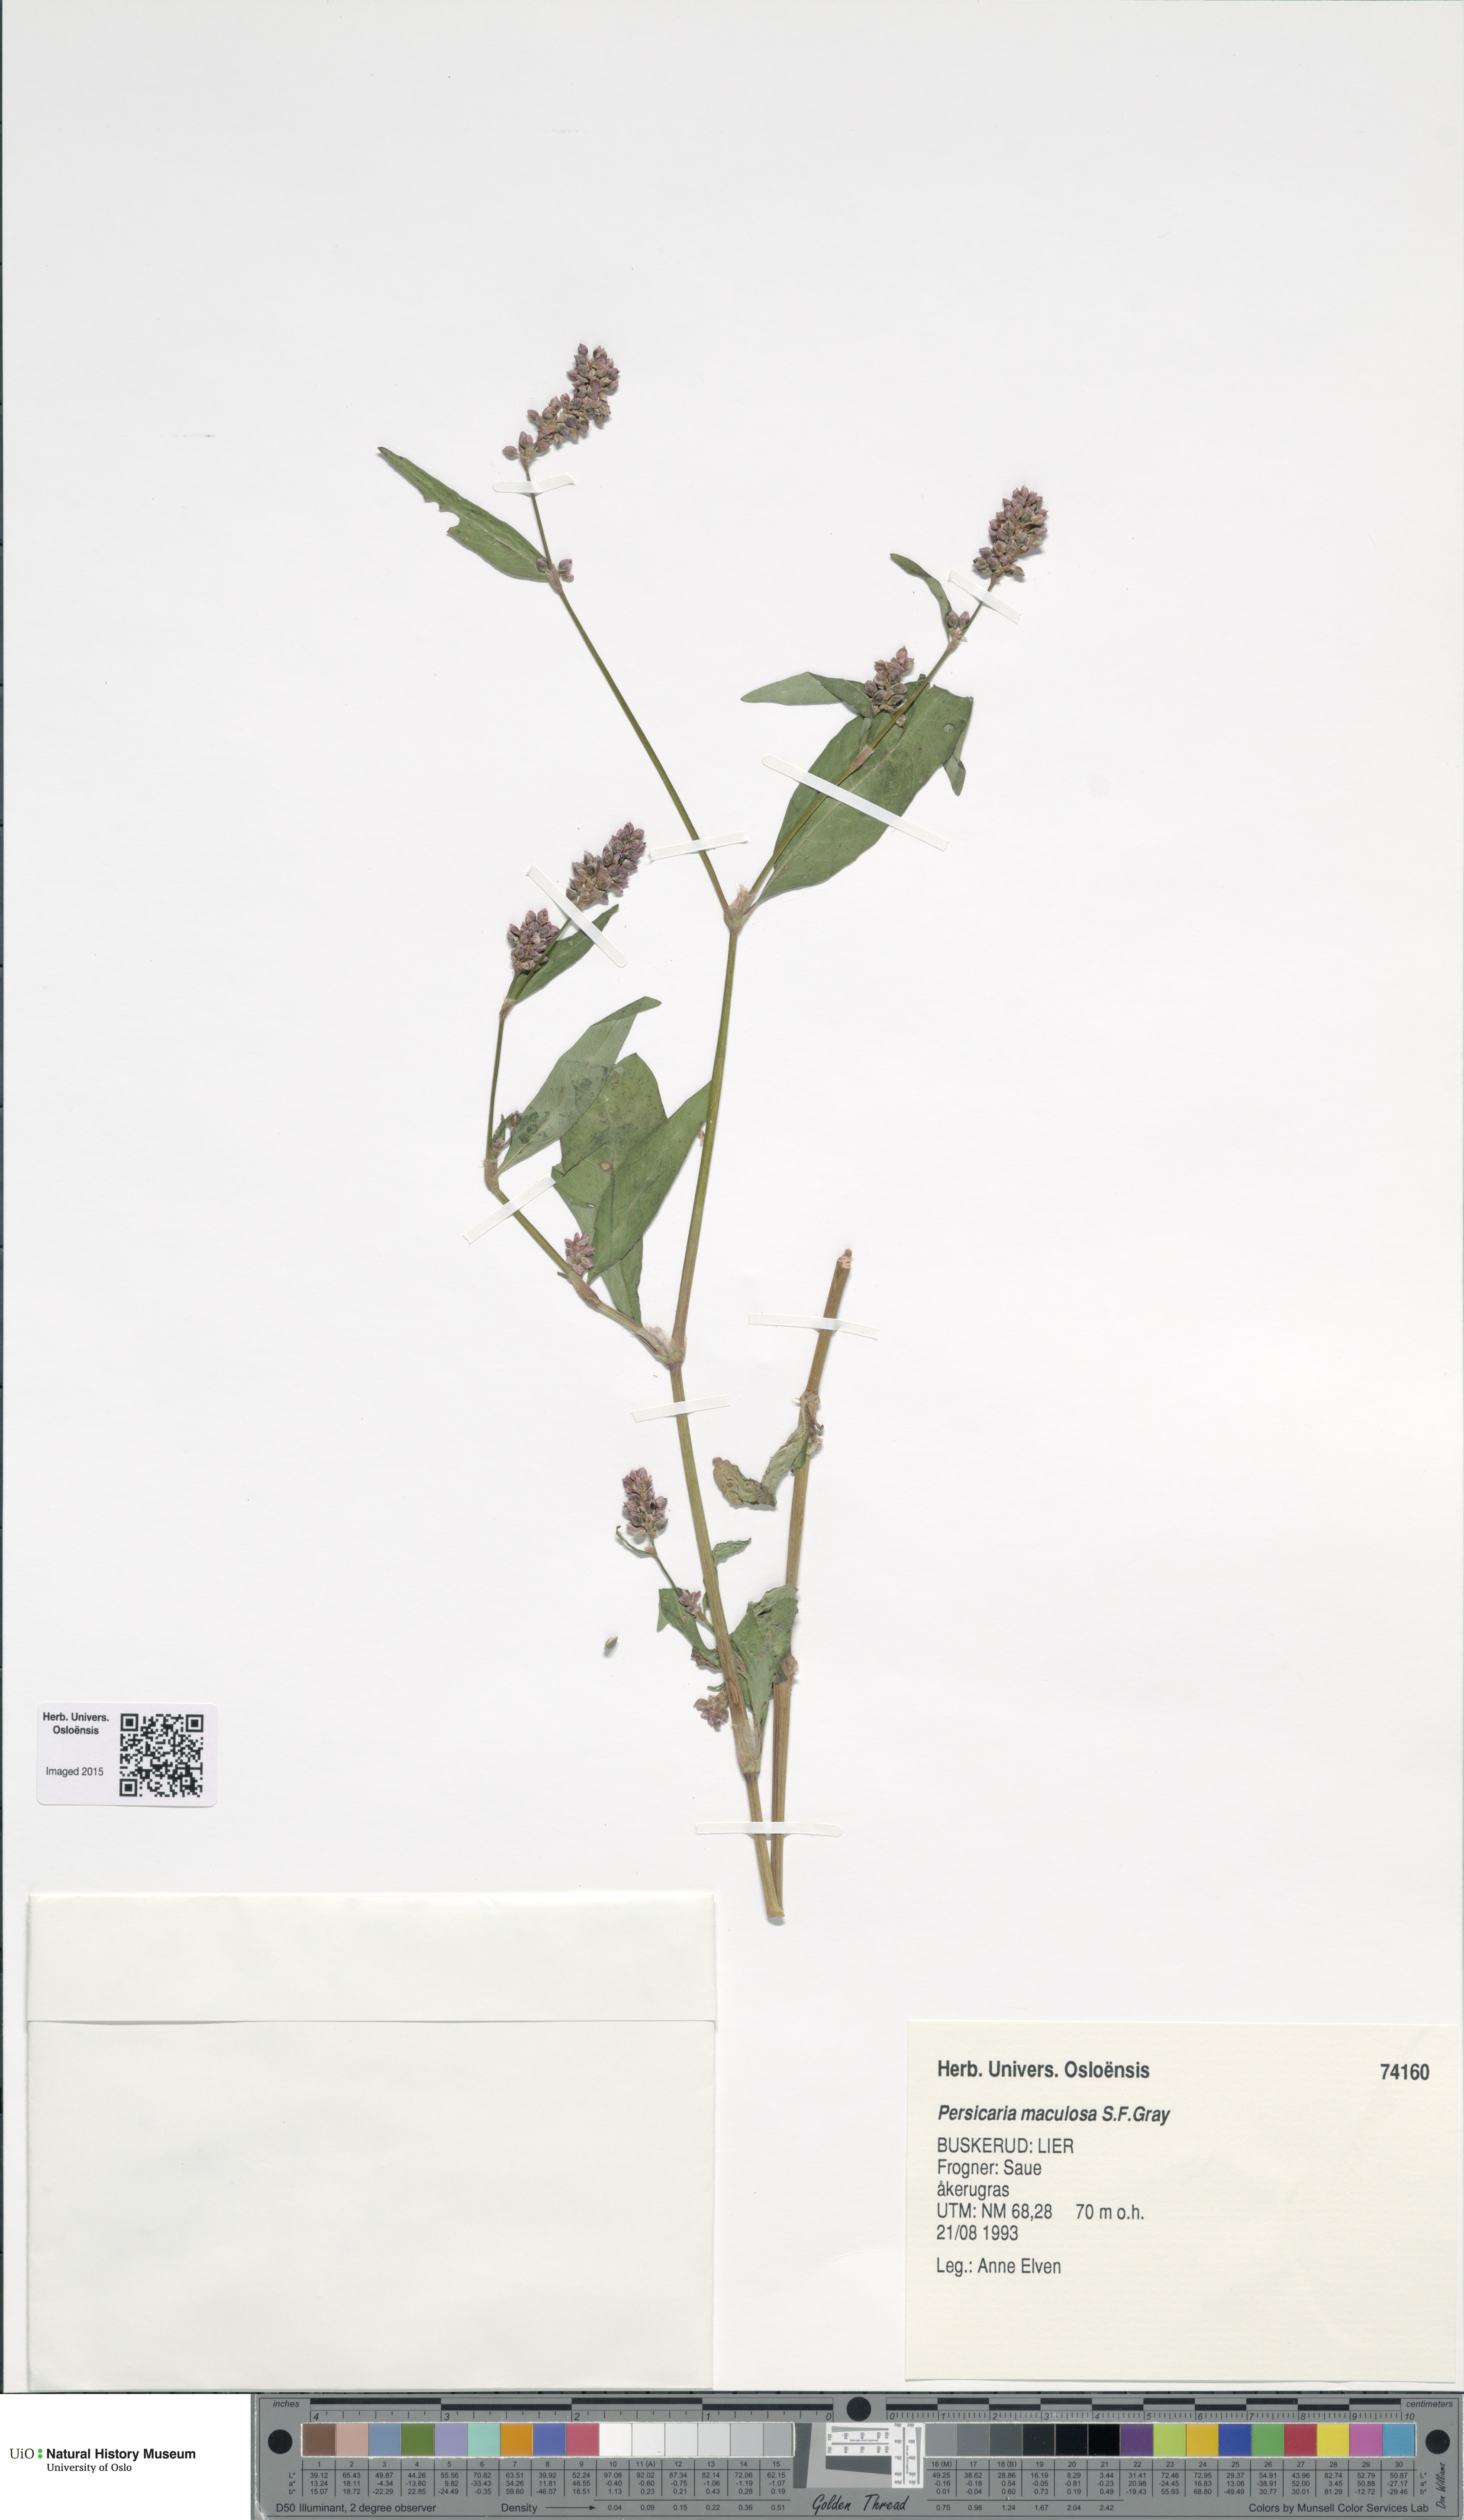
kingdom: Plantae
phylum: Tracheophyta
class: Magnoliopsida
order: Caryophyllales
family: Polygonaceae
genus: Persicaria
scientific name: Persicaria maculosa
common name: Redshank
